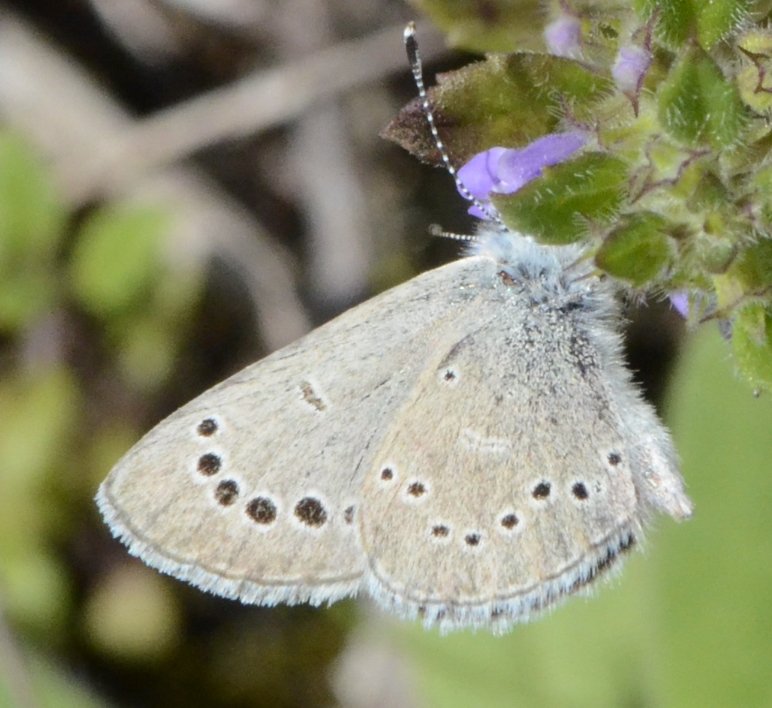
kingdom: Animalia
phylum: Arthropoda
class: Insecta
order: Lepidoptera
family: Lycaenidae
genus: Glaucopsyche
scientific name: Glaucopsyche lygdamus
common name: Silvery Blue
